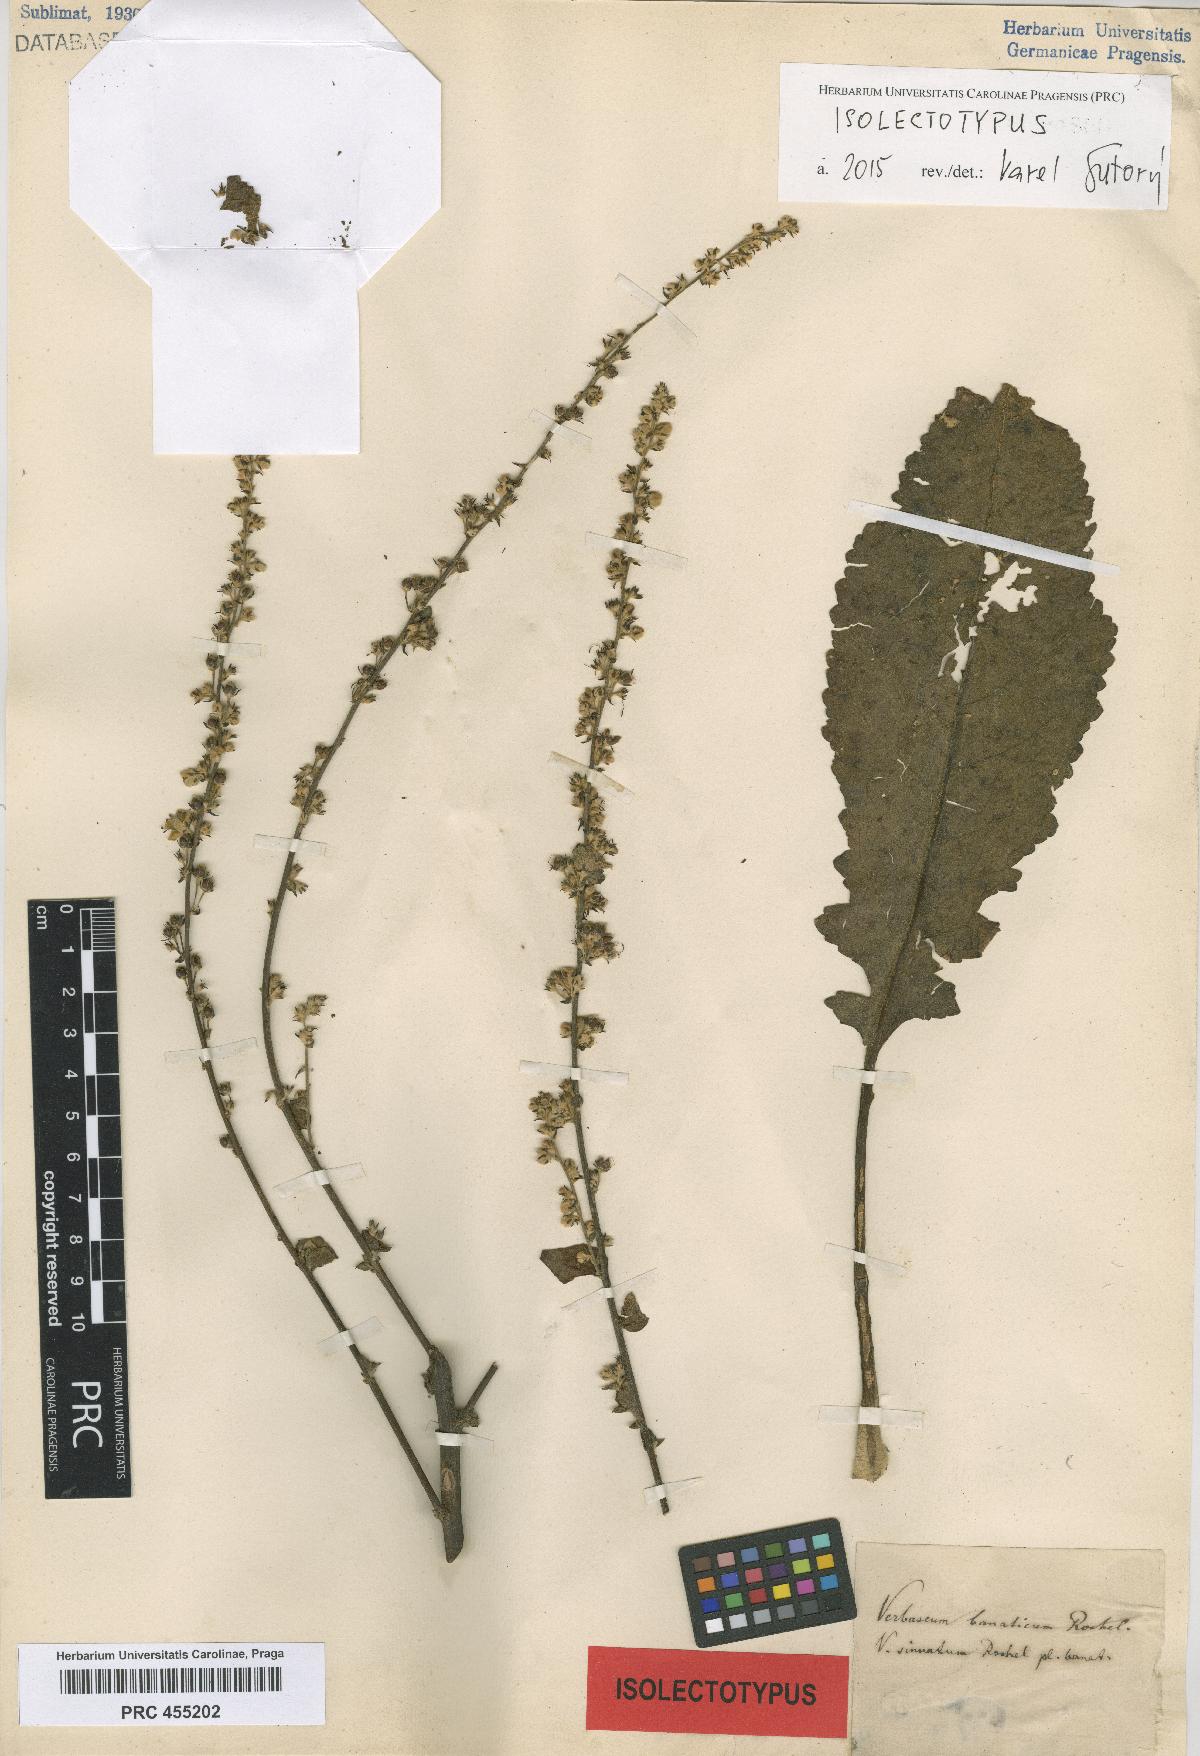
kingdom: Plantae
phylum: Tracheophyta
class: Magnoliopsida
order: Lamiales
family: Scrophulariaceae
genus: Verbascum
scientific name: Verbascum banaticum
